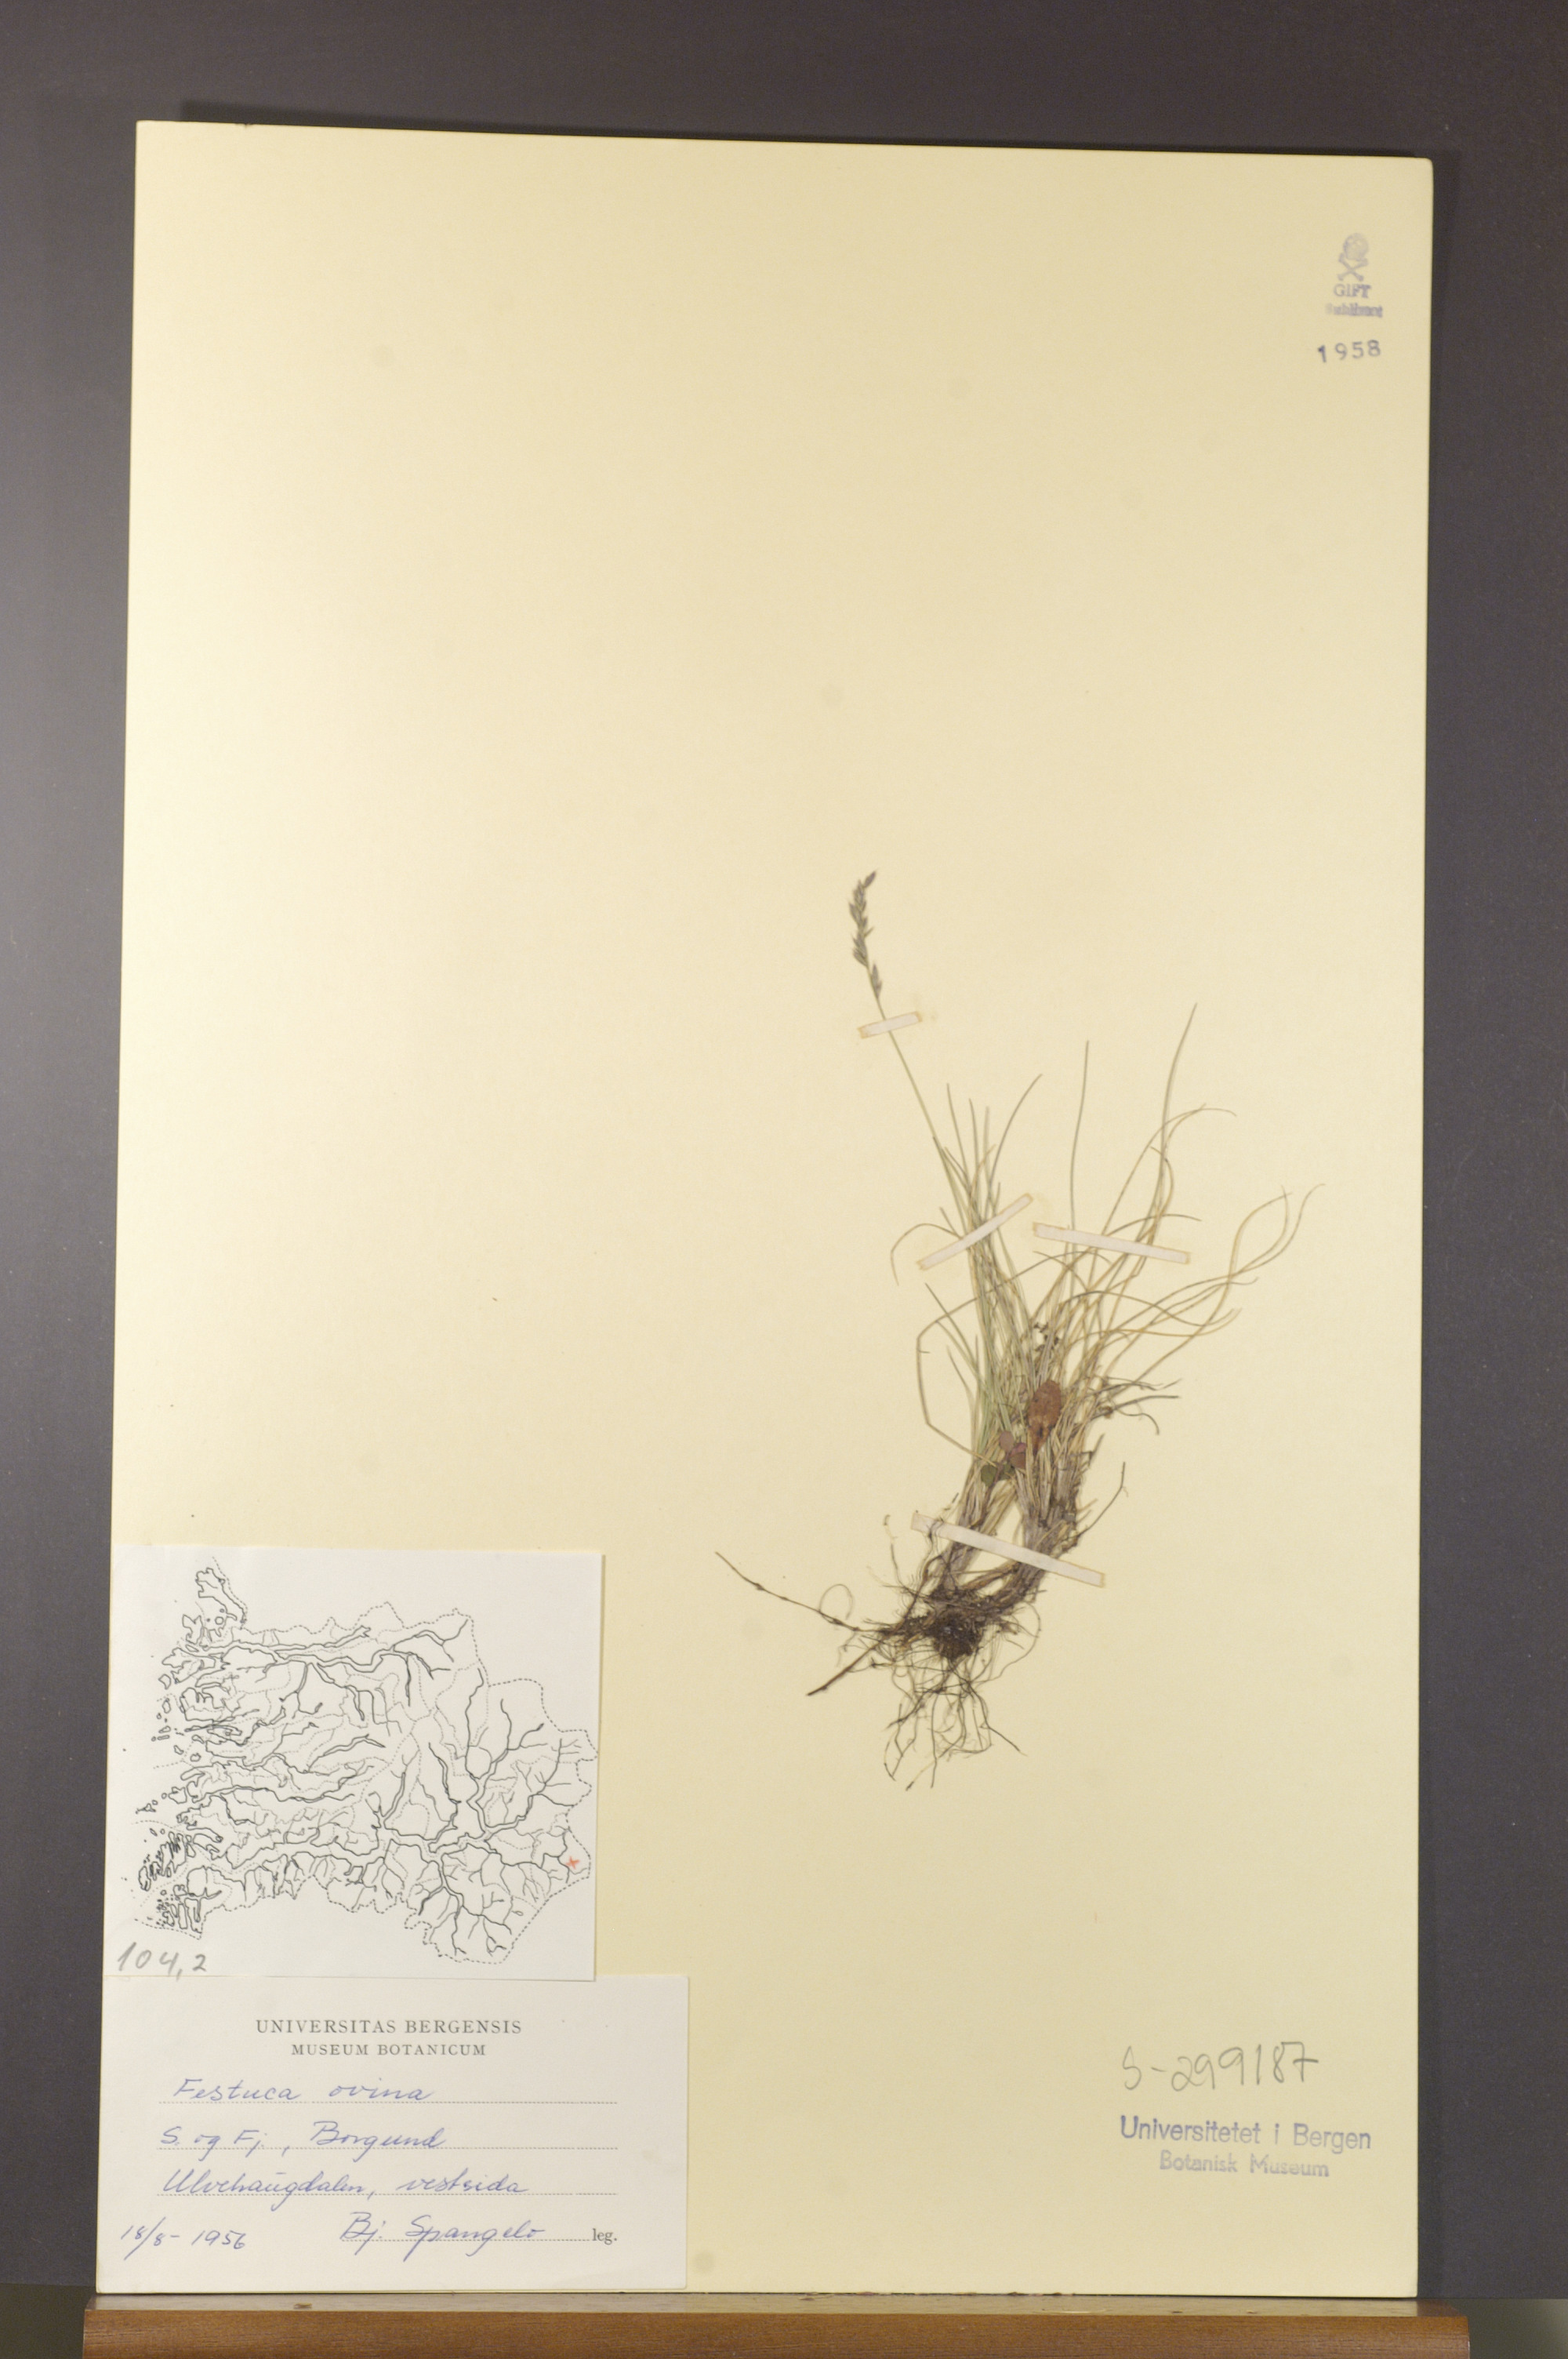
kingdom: Plantae
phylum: Tracheophyta
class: Liliopsida
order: Poales
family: Poaceae
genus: Festuca
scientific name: Festuca ovina
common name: Sheep fescue
